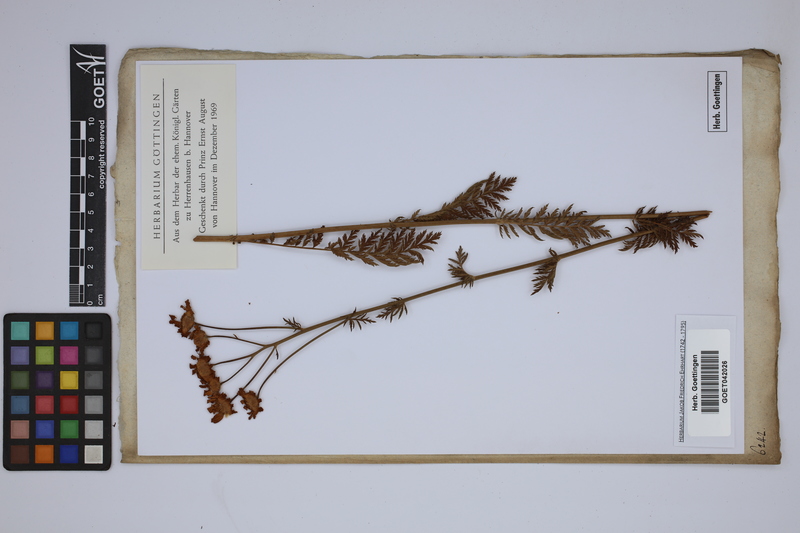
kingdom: Plantae
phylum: Tracheophyta
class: Magnoliopsida
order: Asterales
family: Asteraceae
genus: Cota
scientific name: Cota tinctoria
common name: Golden chamomile
